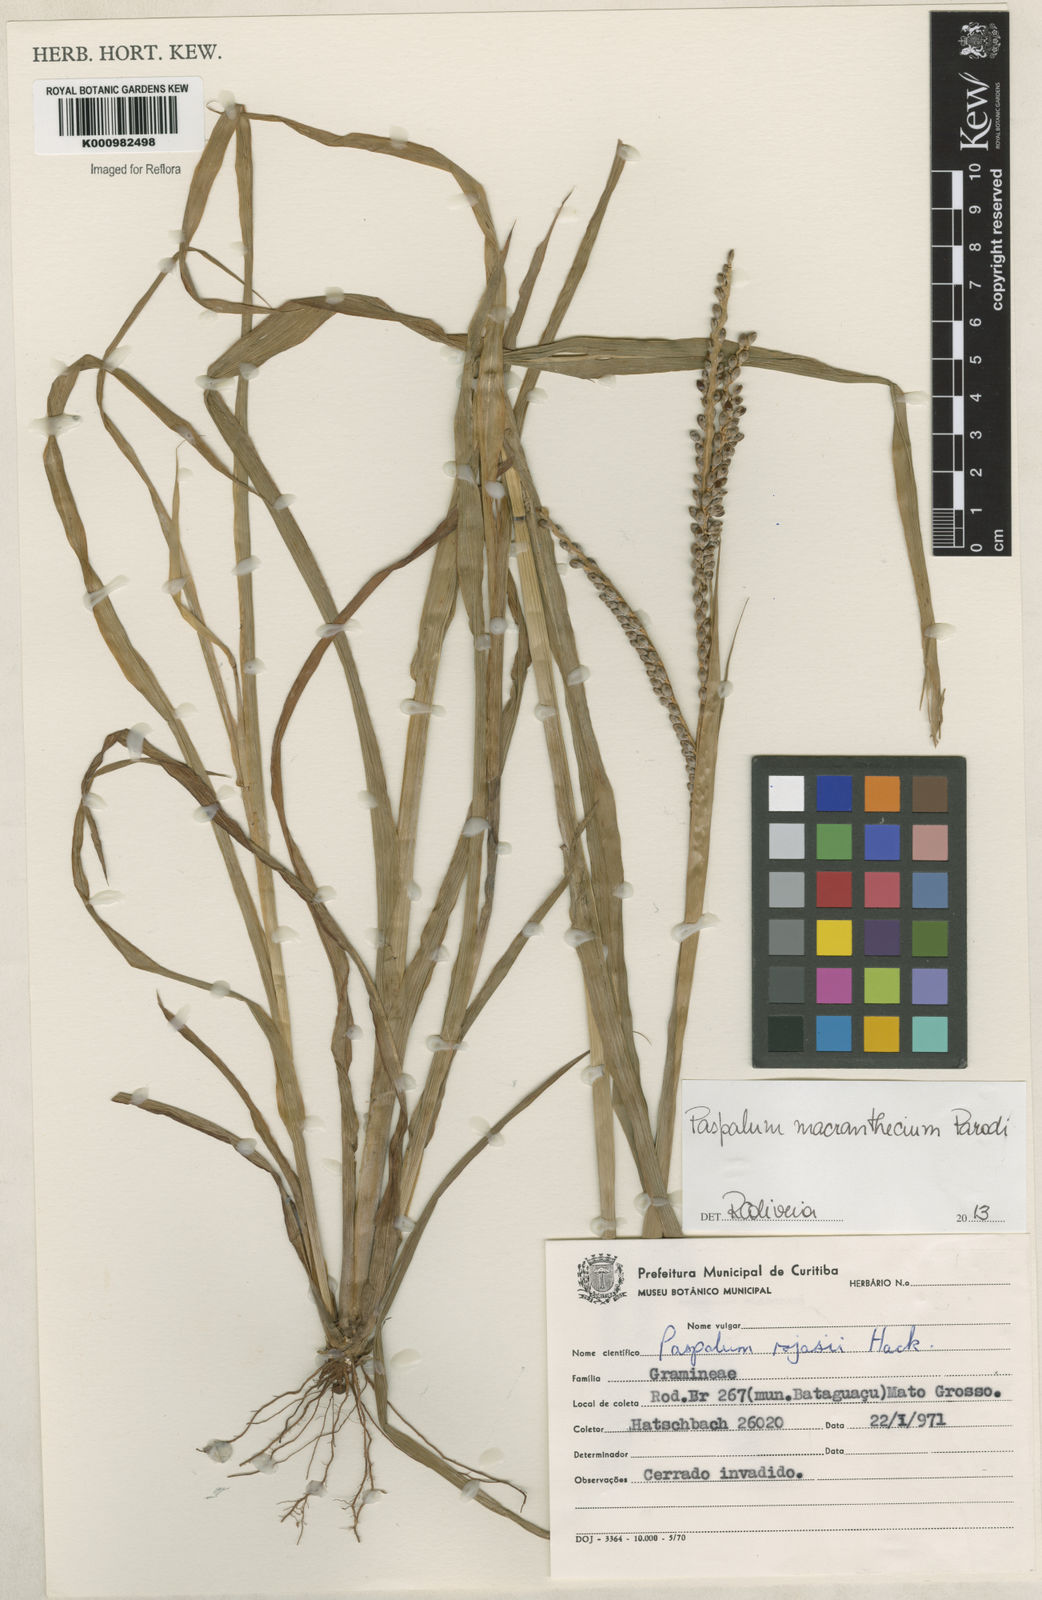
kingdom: Plantae
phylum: Tracheophyta
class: Liliopsida
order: Poales
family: Poaceae
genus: Paspalum
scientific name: Paspalum macranthecium
